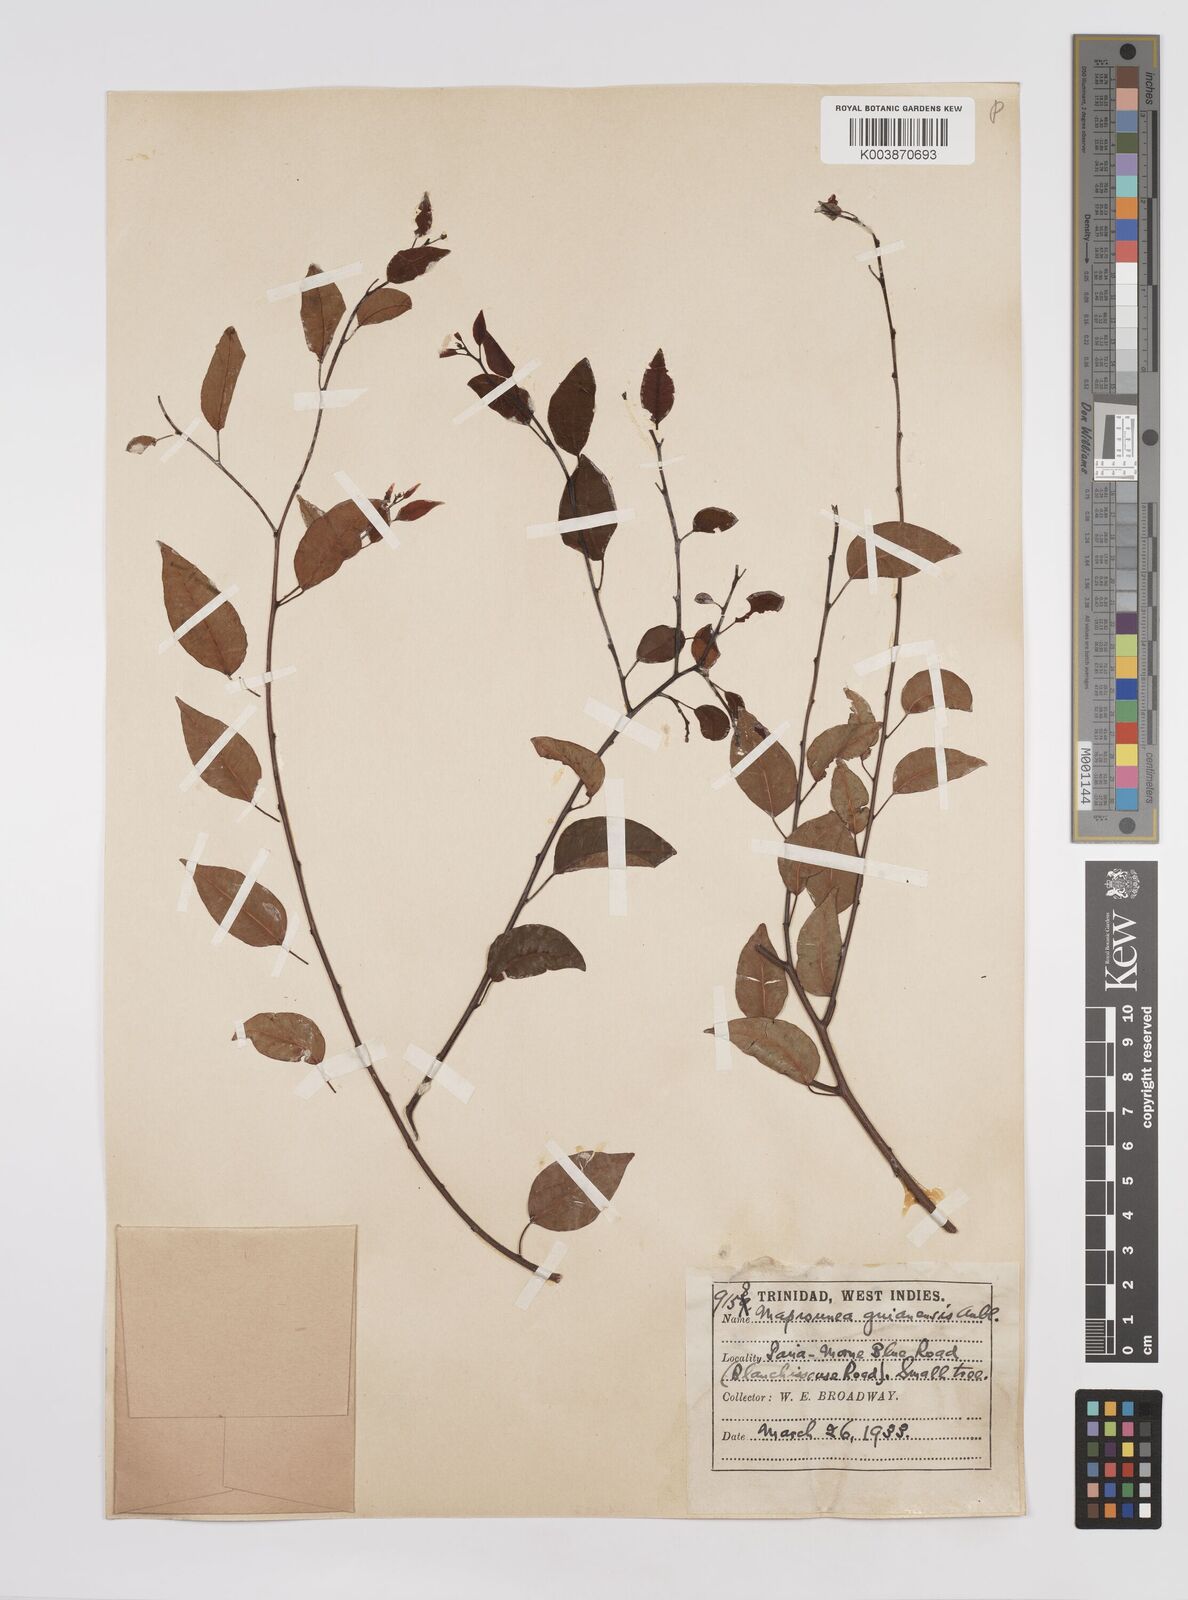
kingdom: Plantae
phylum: Tracheophyta
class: Magnoliopsida
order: Malpighiales
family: Euphorbiaceae
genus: Maprounea
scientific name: Maprounea guianensis
